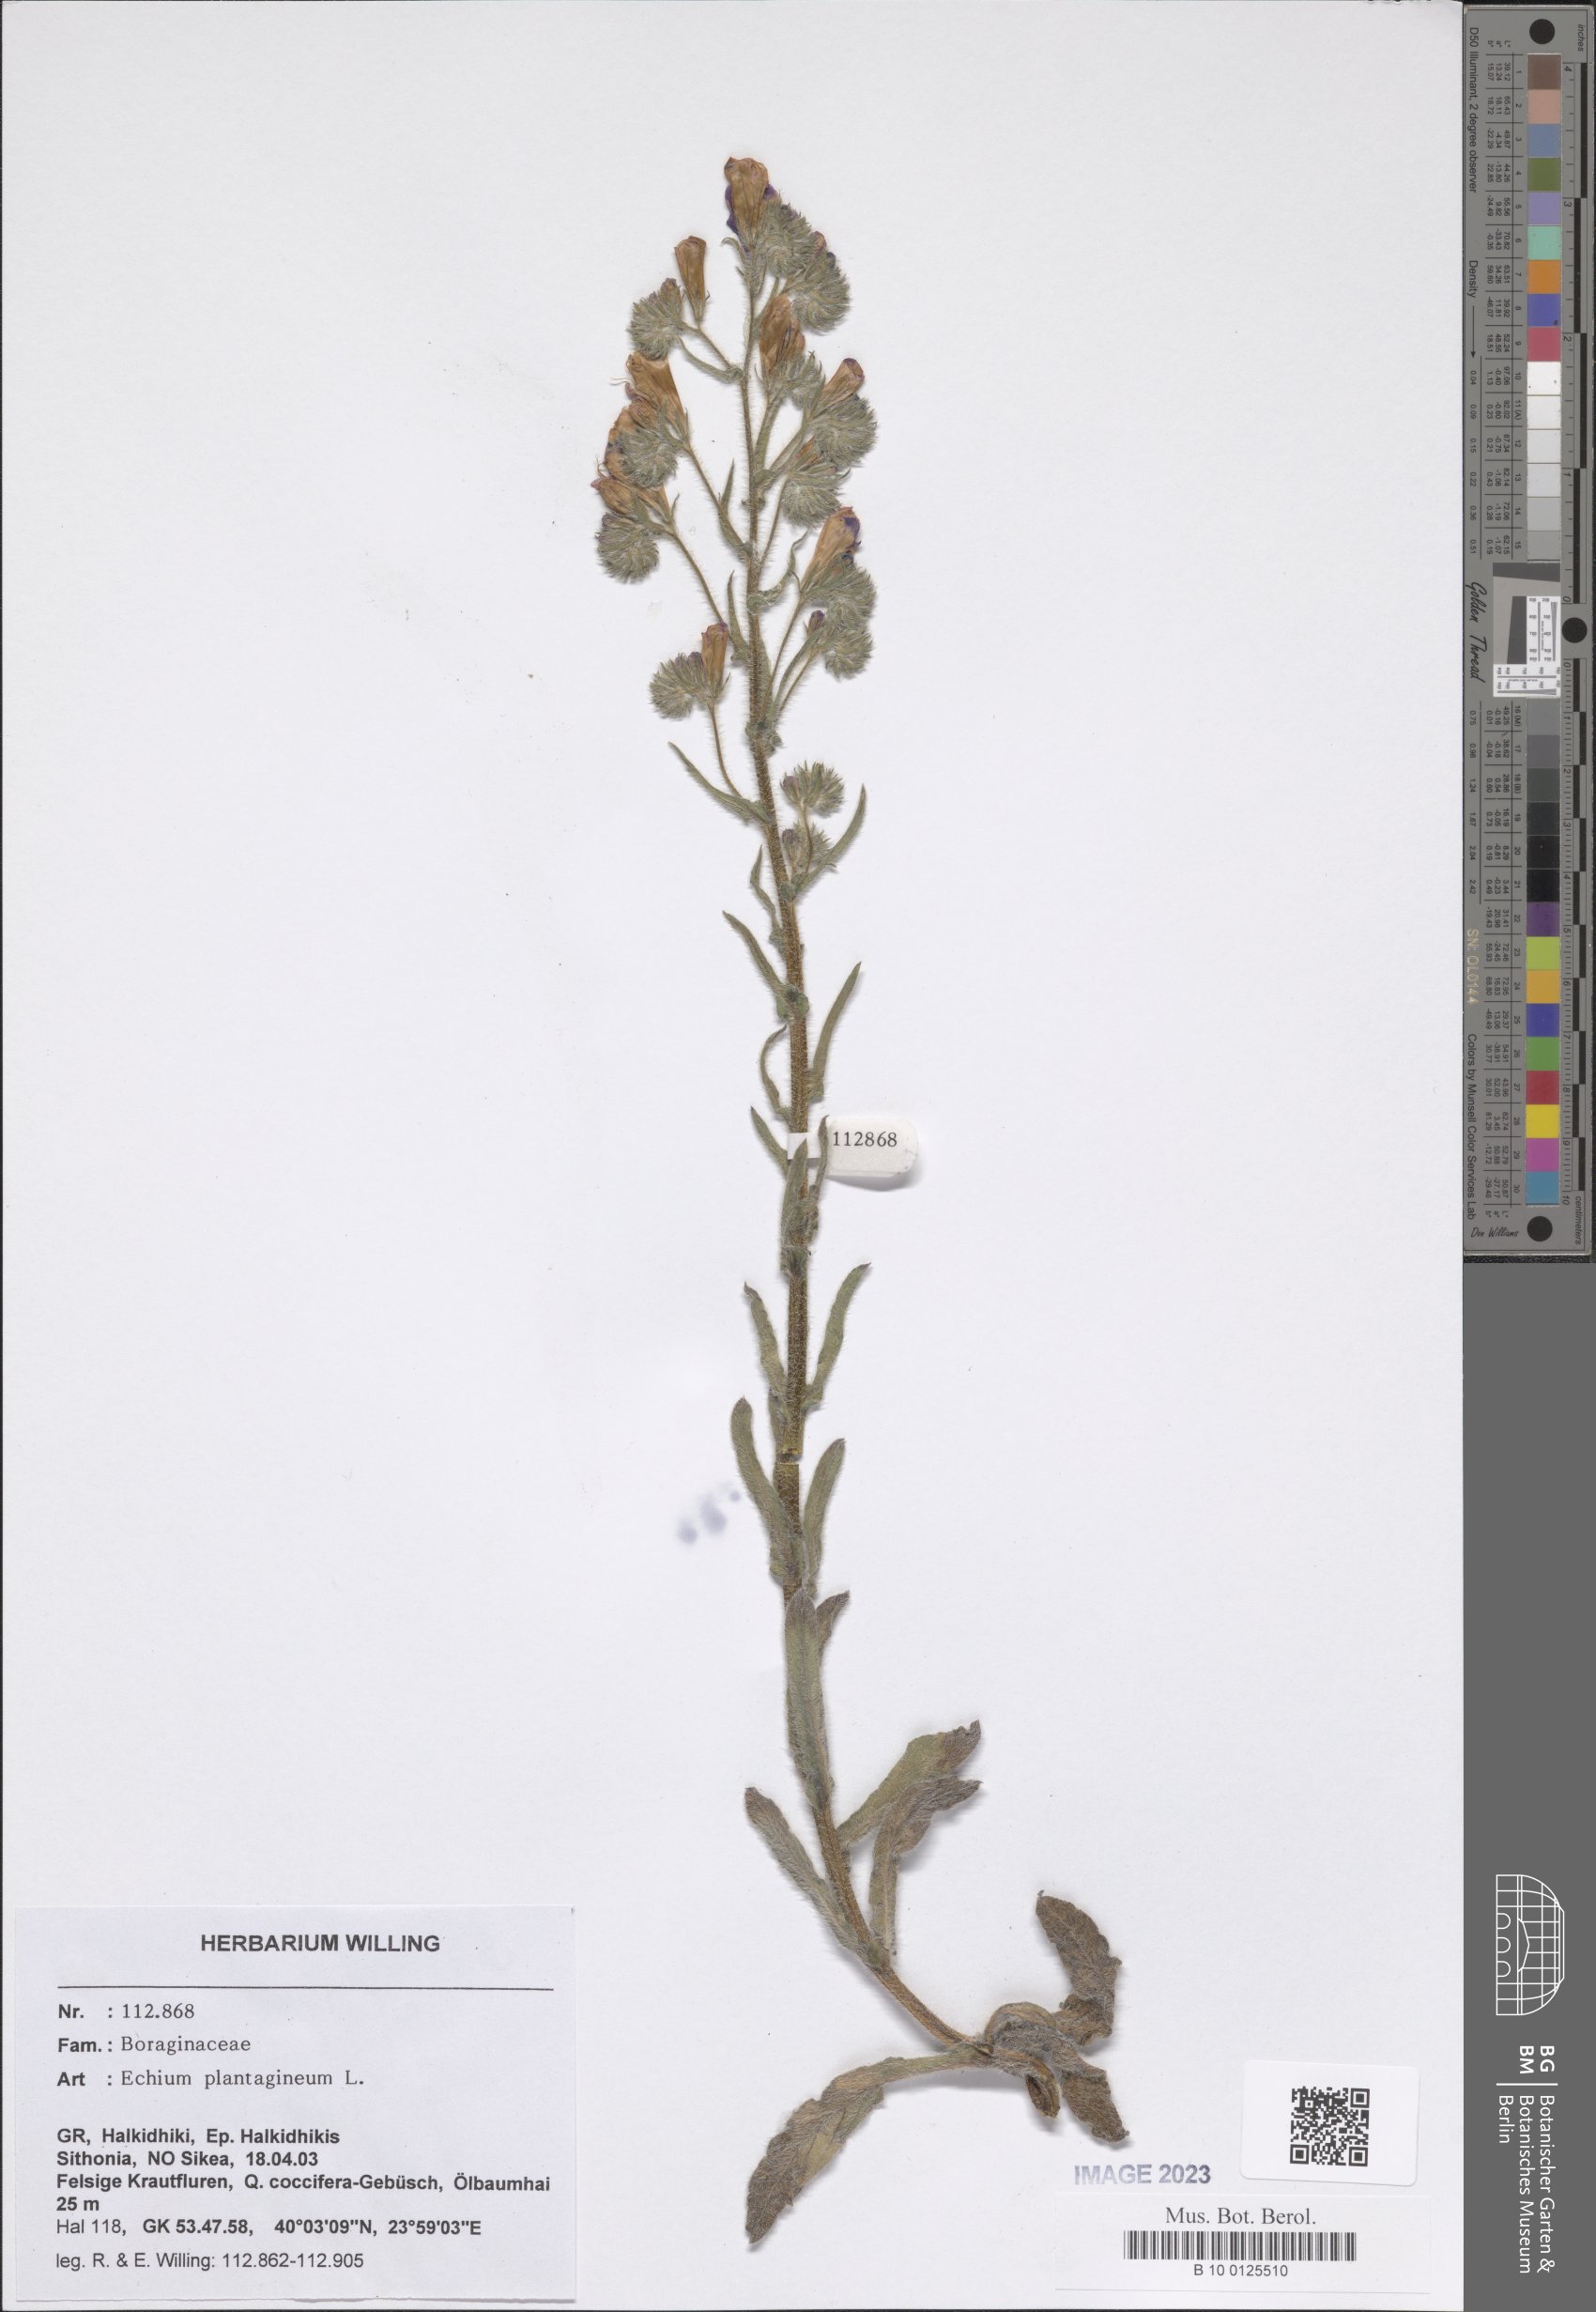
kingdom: Plantae
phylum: Tracheophyta
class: Magnoliopsida
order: Boraginales
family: Boraginaceae
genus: Echium
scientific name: Echium plantagineum
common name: Purple viper's-bugloss
